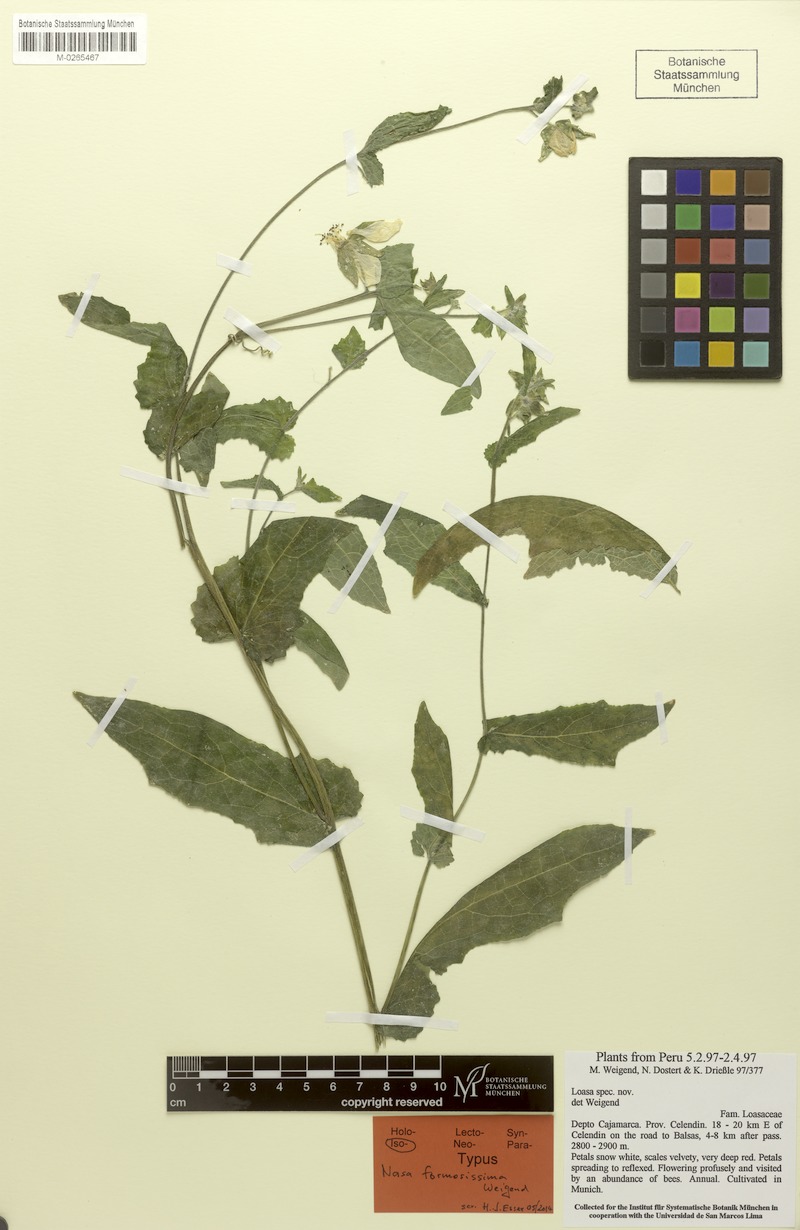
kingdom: Plantae
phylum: Tracheophyta
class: Magnoliopsida
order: Cornales
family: Loasaceae
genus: Nasa
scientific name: Nasa formosissima
